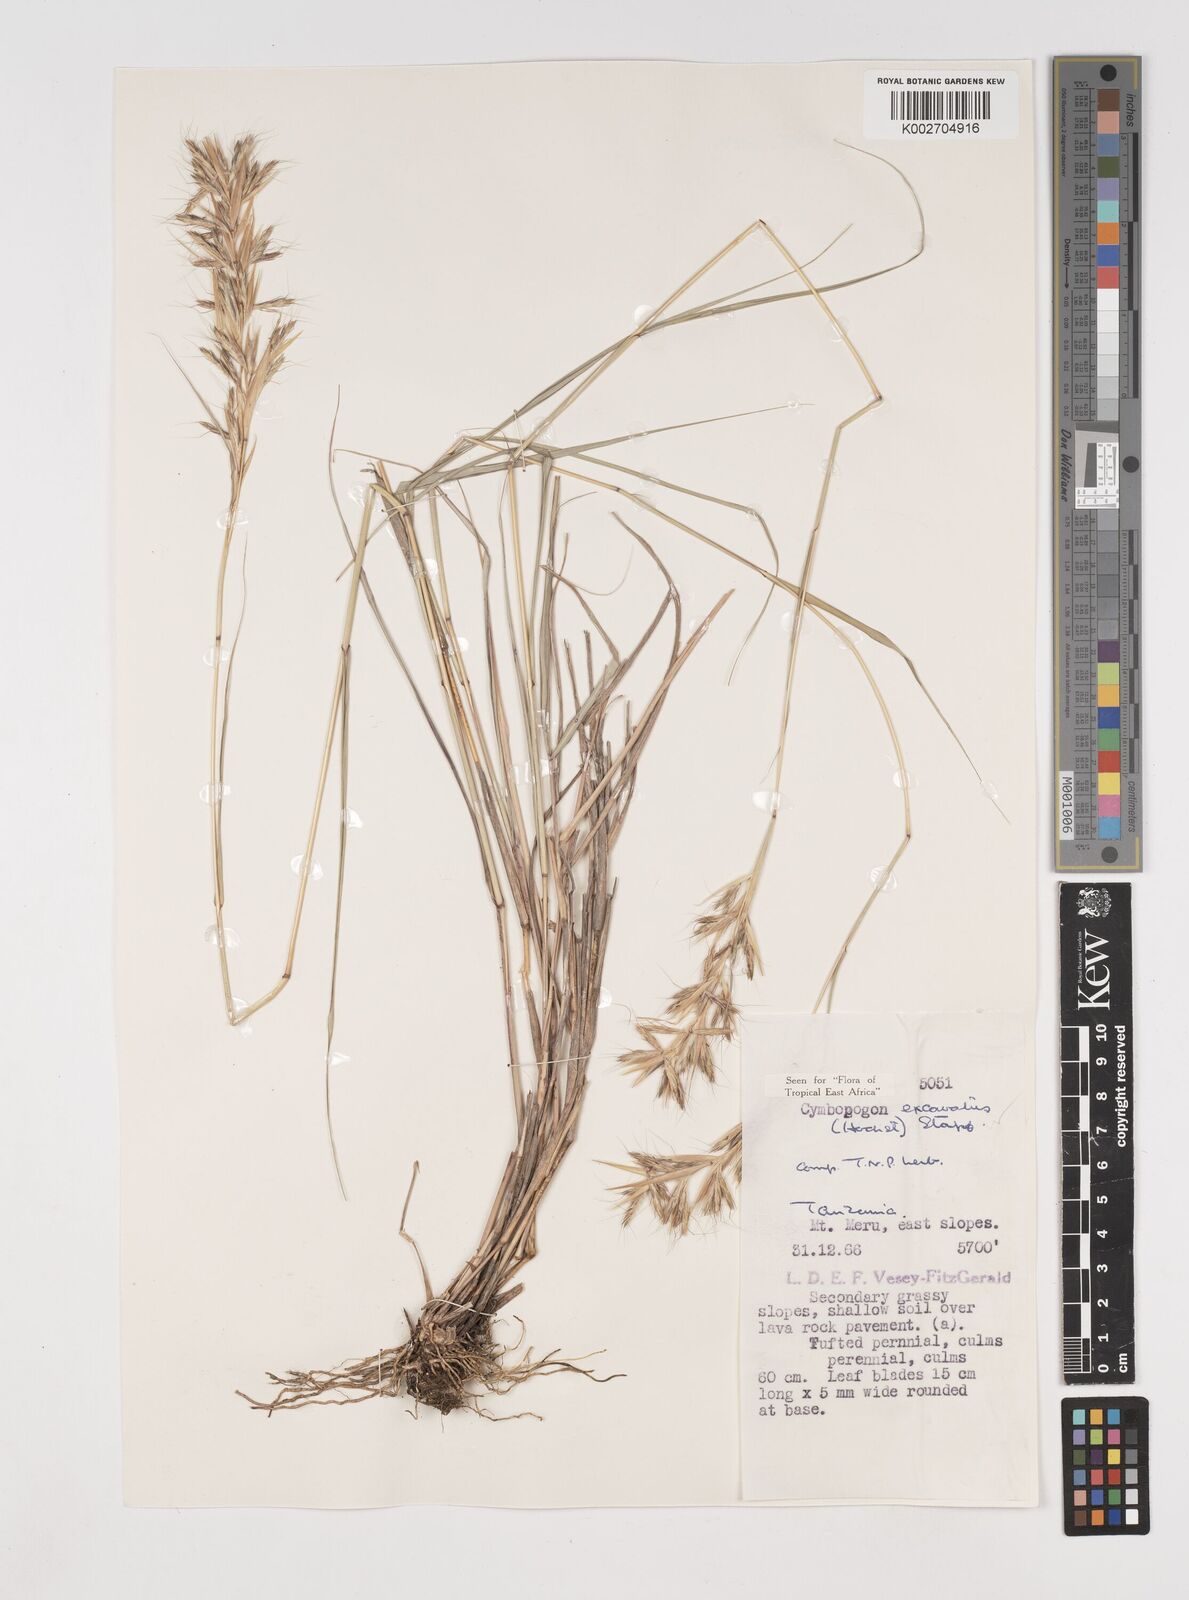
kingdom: Plantae
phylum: Tracheophyta
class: Liliopsida
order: Poales
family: Poaceae
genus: Cymbopogon
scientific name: Cymbopogon caesius
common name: Kachi grass
